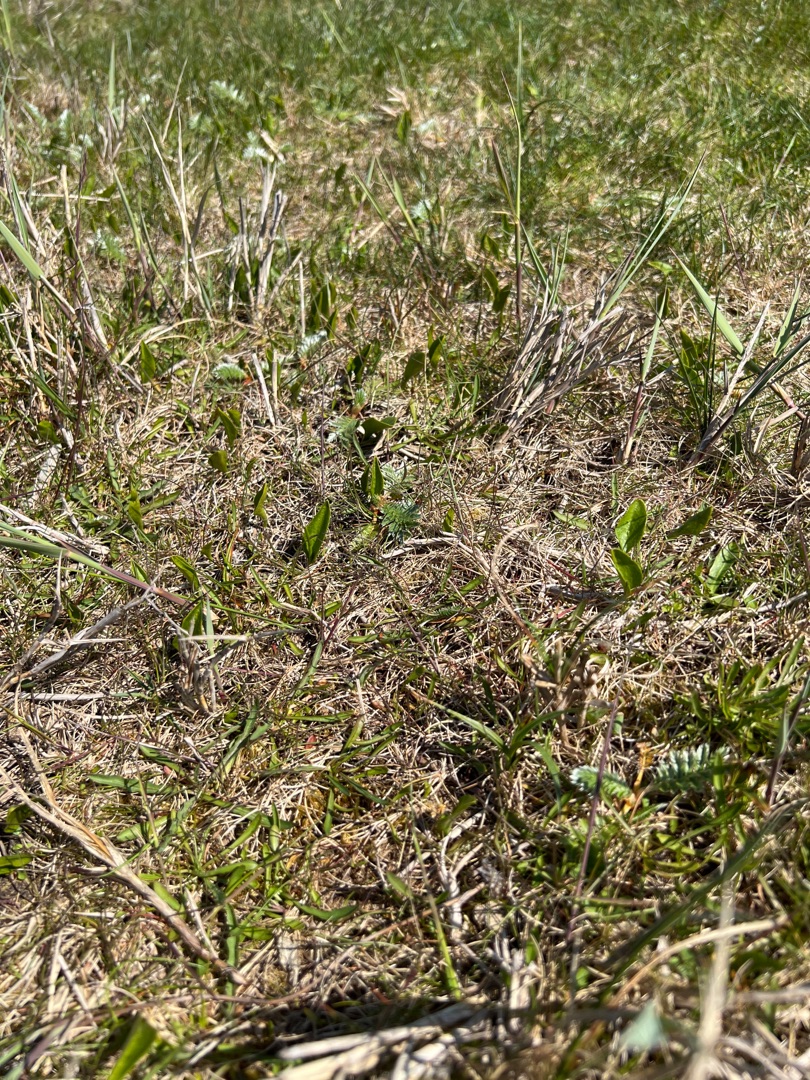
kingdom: Plantae
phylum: Tracheophyta
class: Polypodiopsida
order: Ophioglossales
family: Ophioglossaceae
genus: Ophioglossum
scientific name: Ophioglossum vulgatum
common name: Slangetunge
